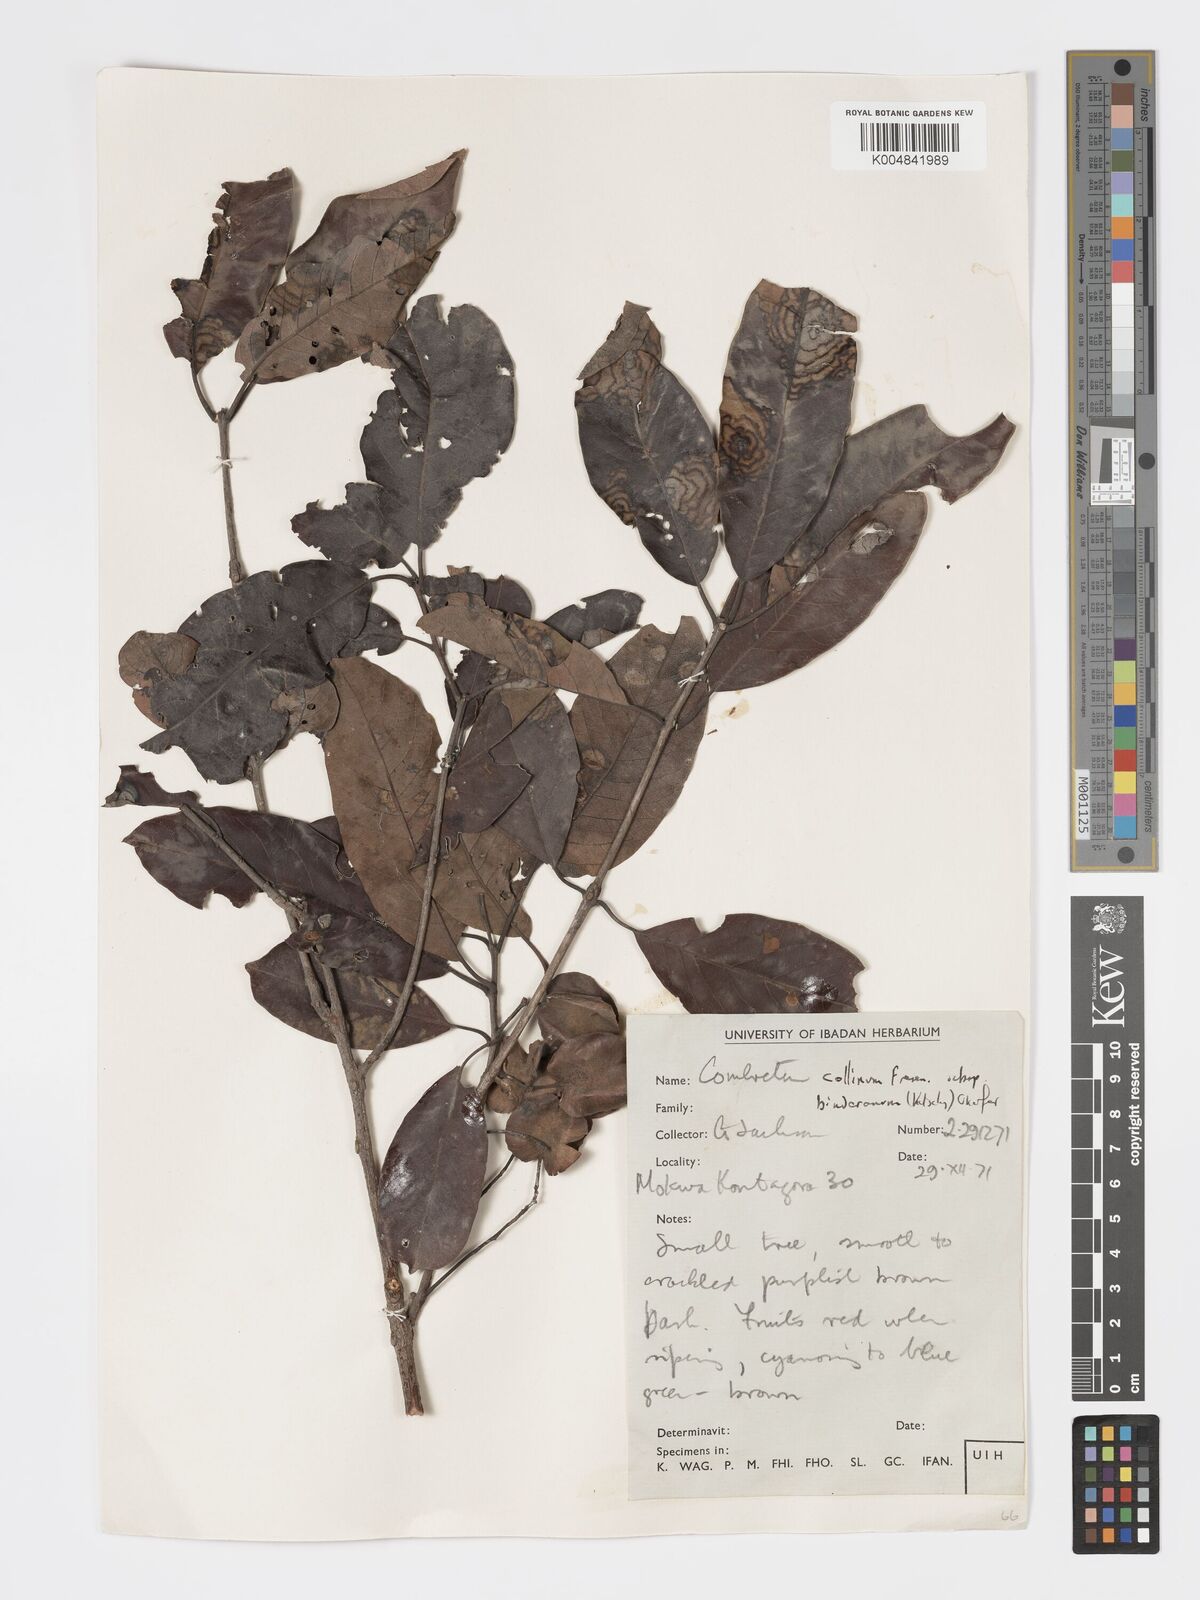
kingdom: Plantae
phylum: Tracheophyta
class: Magnoliopsida
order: Myrtales
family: Combretaceae
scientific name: Combretaceae
